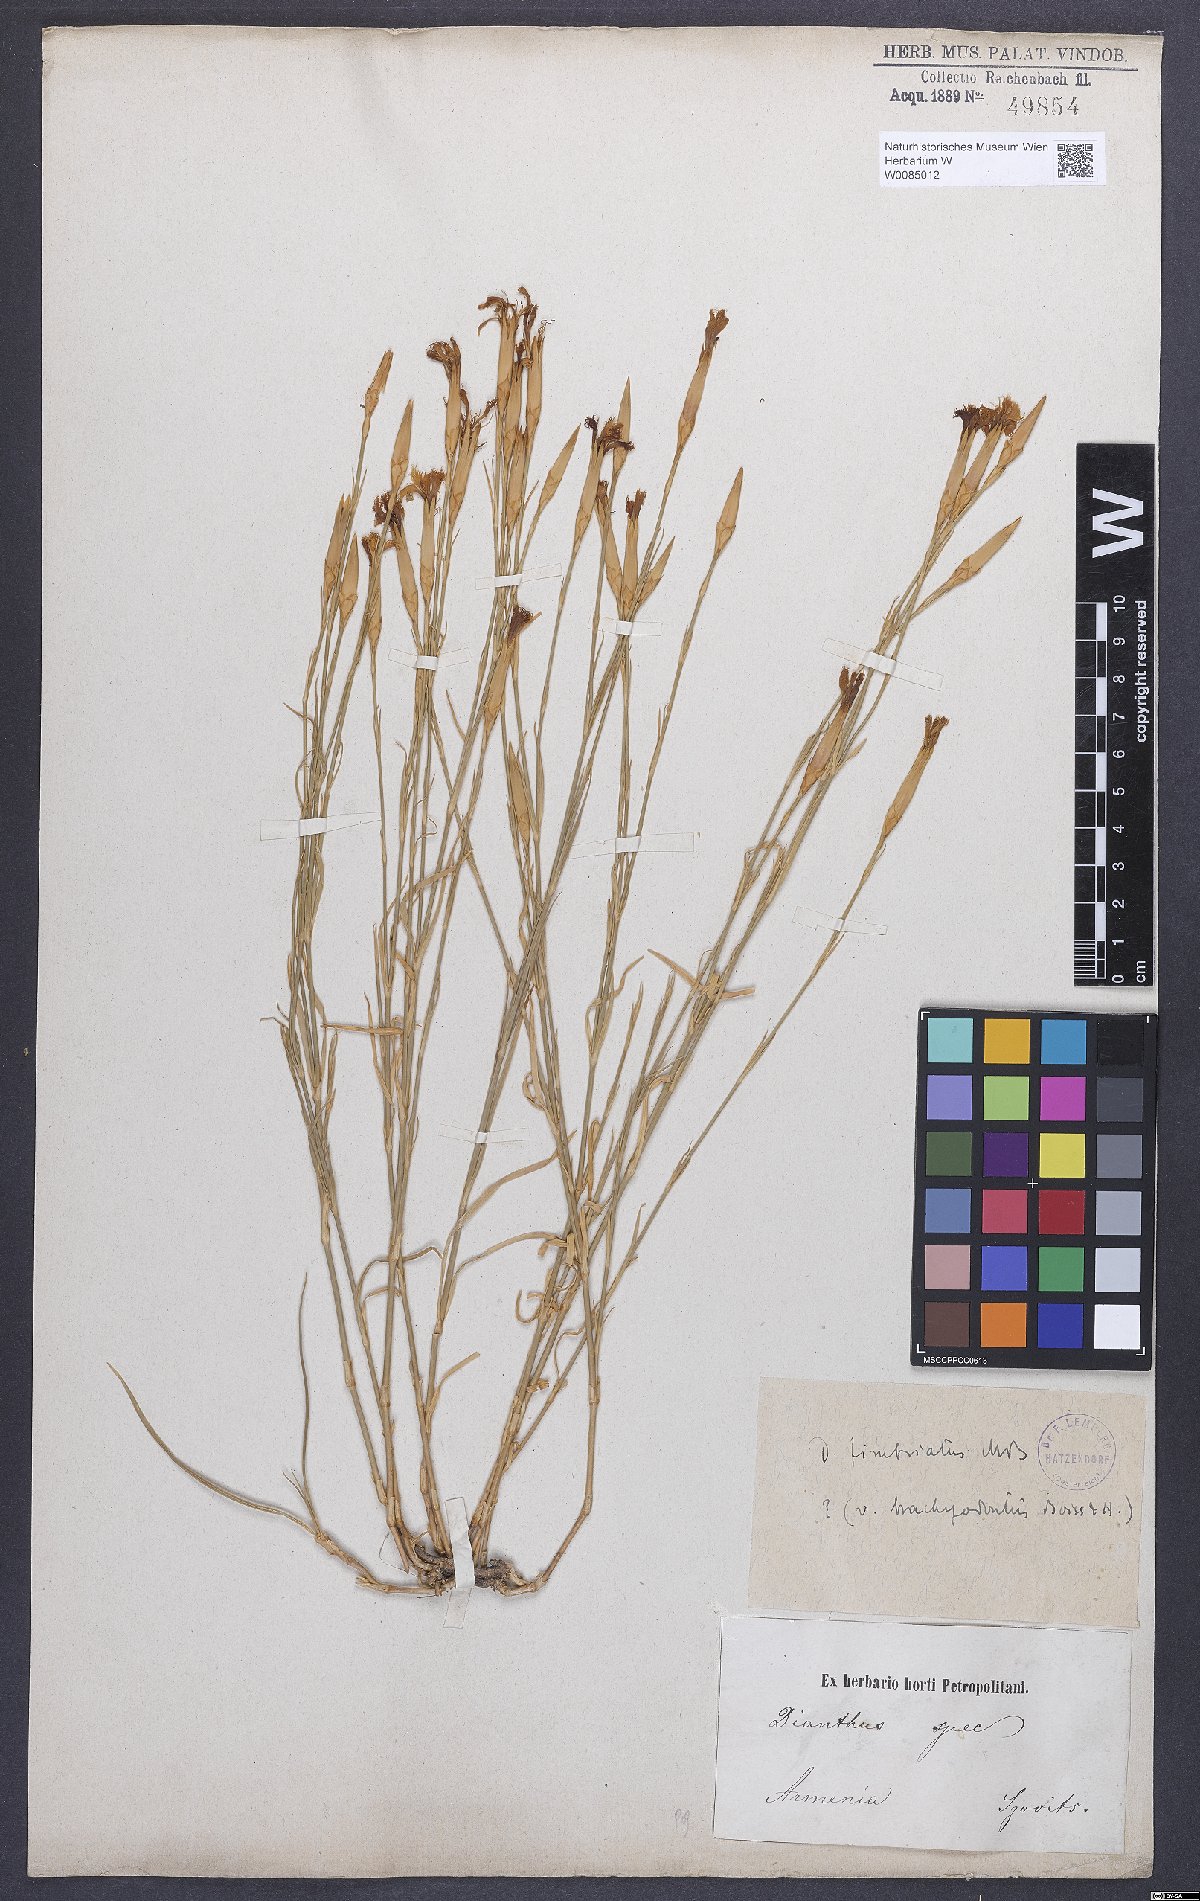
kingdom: Plantae
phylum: Tracheophyta
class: Magnoliopsida
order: Caryophyllales
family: Caryophyllaceae
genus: Dianthus
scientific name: Dianthus broteri
